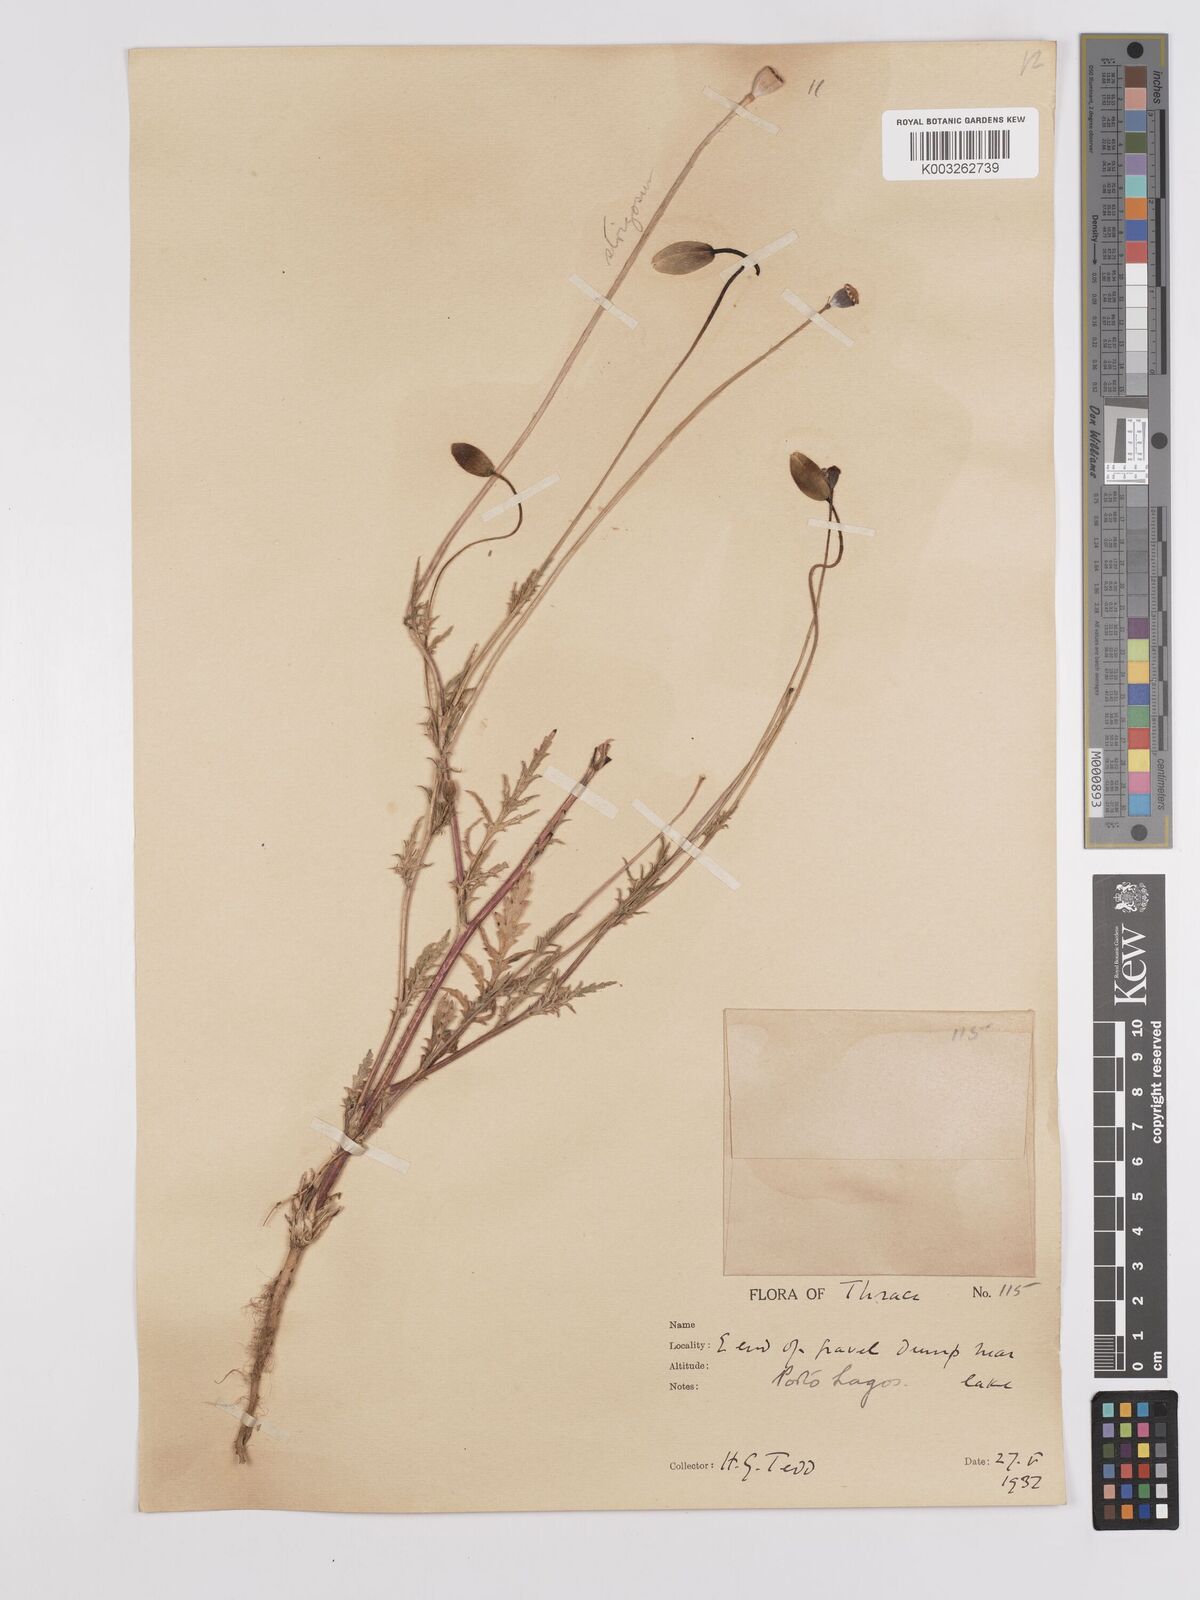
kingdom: Plantae
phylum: Tracheophyta
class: Magnoliopsida
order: Ranunculales
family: Papaveraceae
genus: Papaver
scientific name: Papaver
